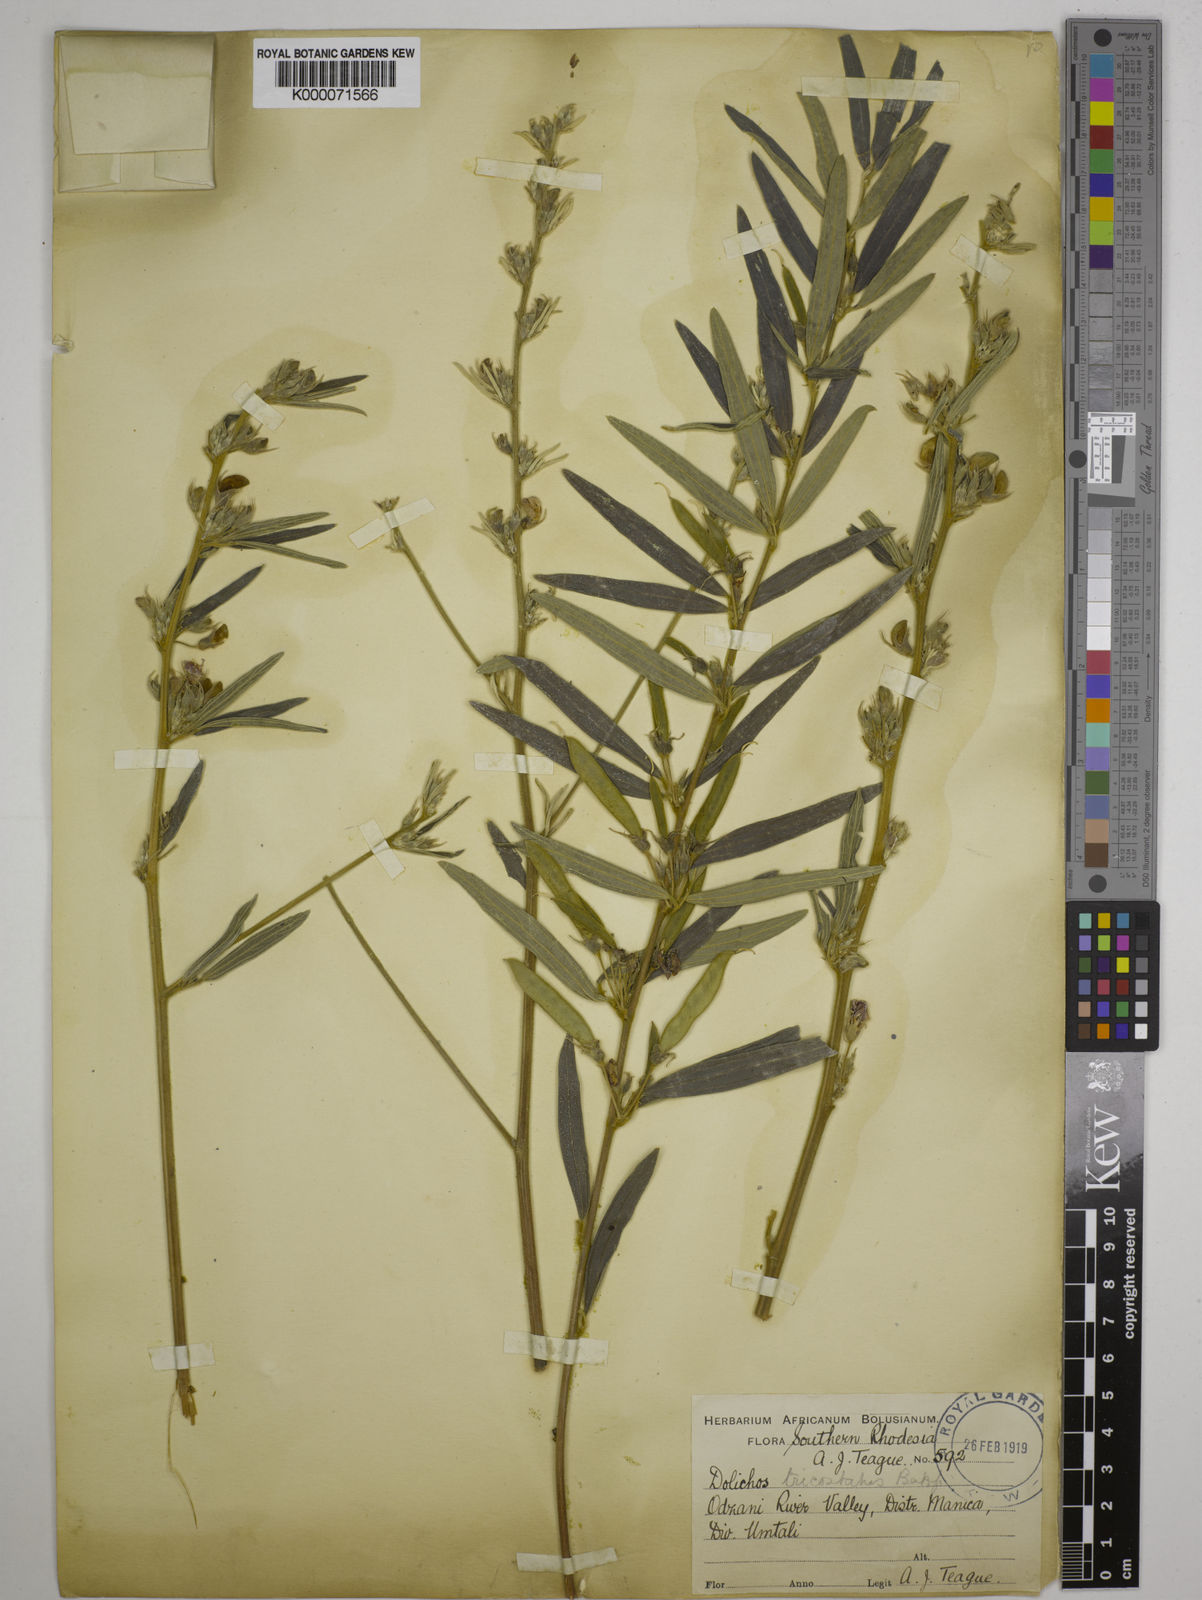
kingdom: Plantae
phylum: Tracheophyta
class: Magnoliopsida
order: Fabales
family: Fabaceae
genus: Dolichos
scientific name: Dolichos trinervatus
